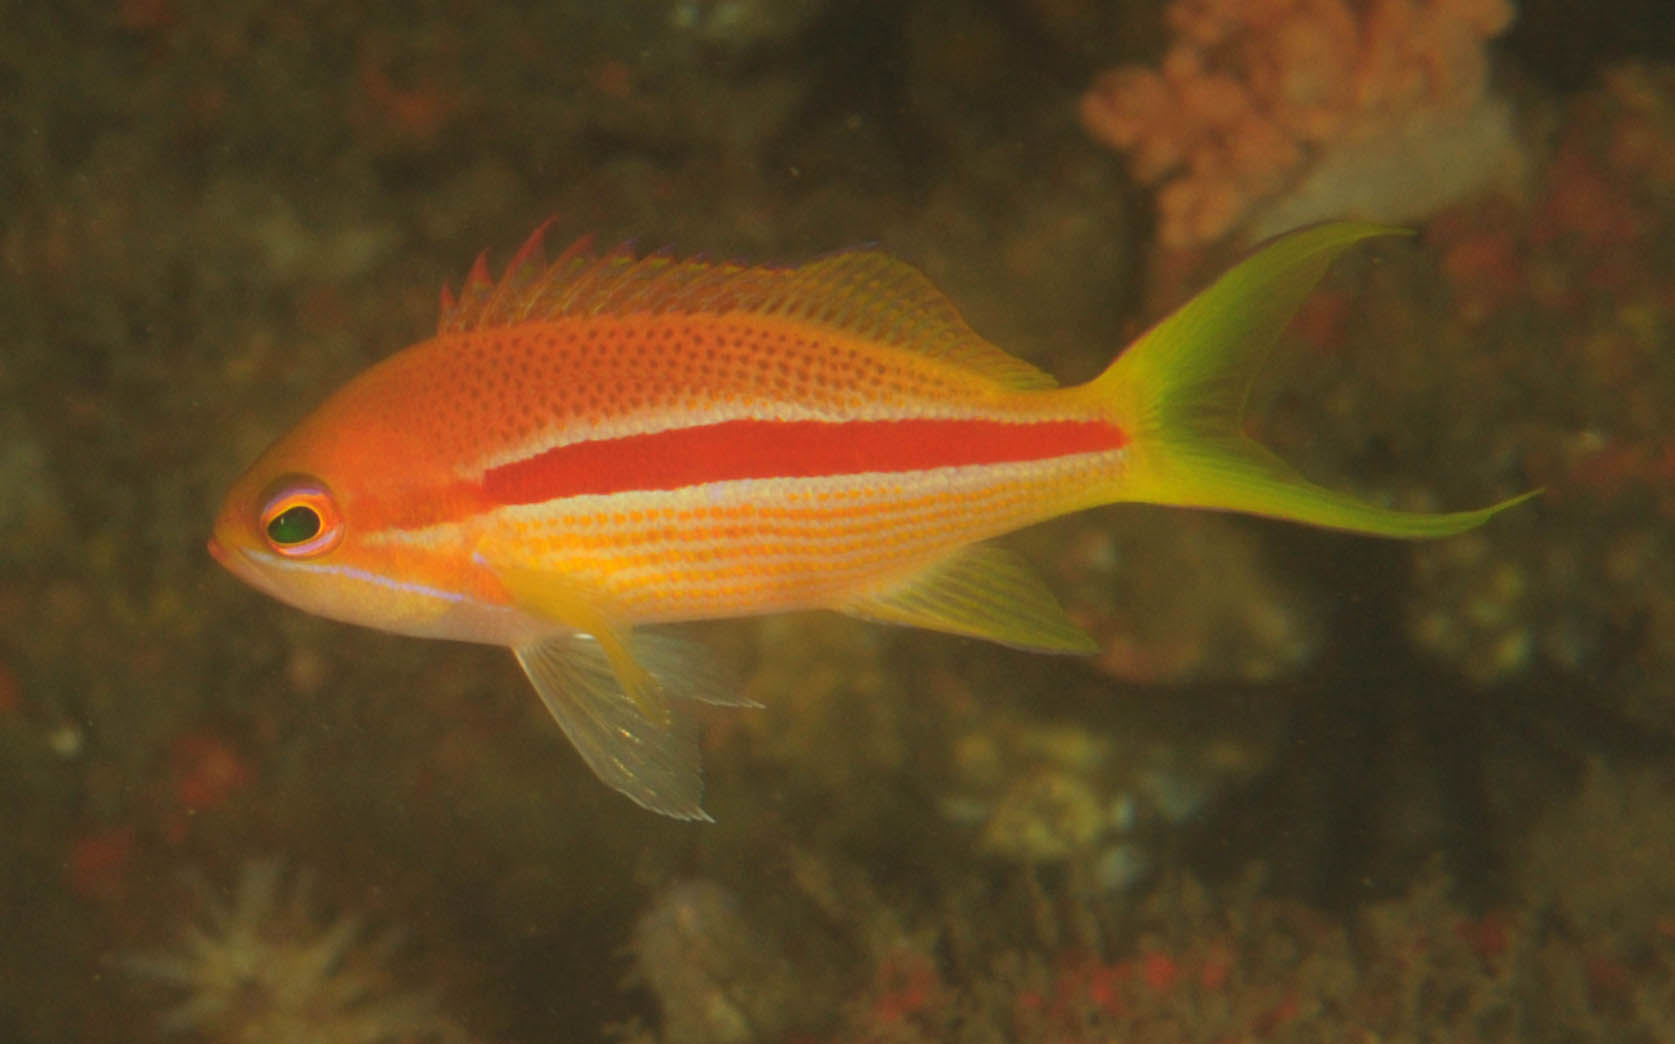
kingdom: Animalia
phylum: Chordata
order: Perciformes
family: Serranidae
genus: Pseudanthias
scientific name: Pseudanthias fasciatus
